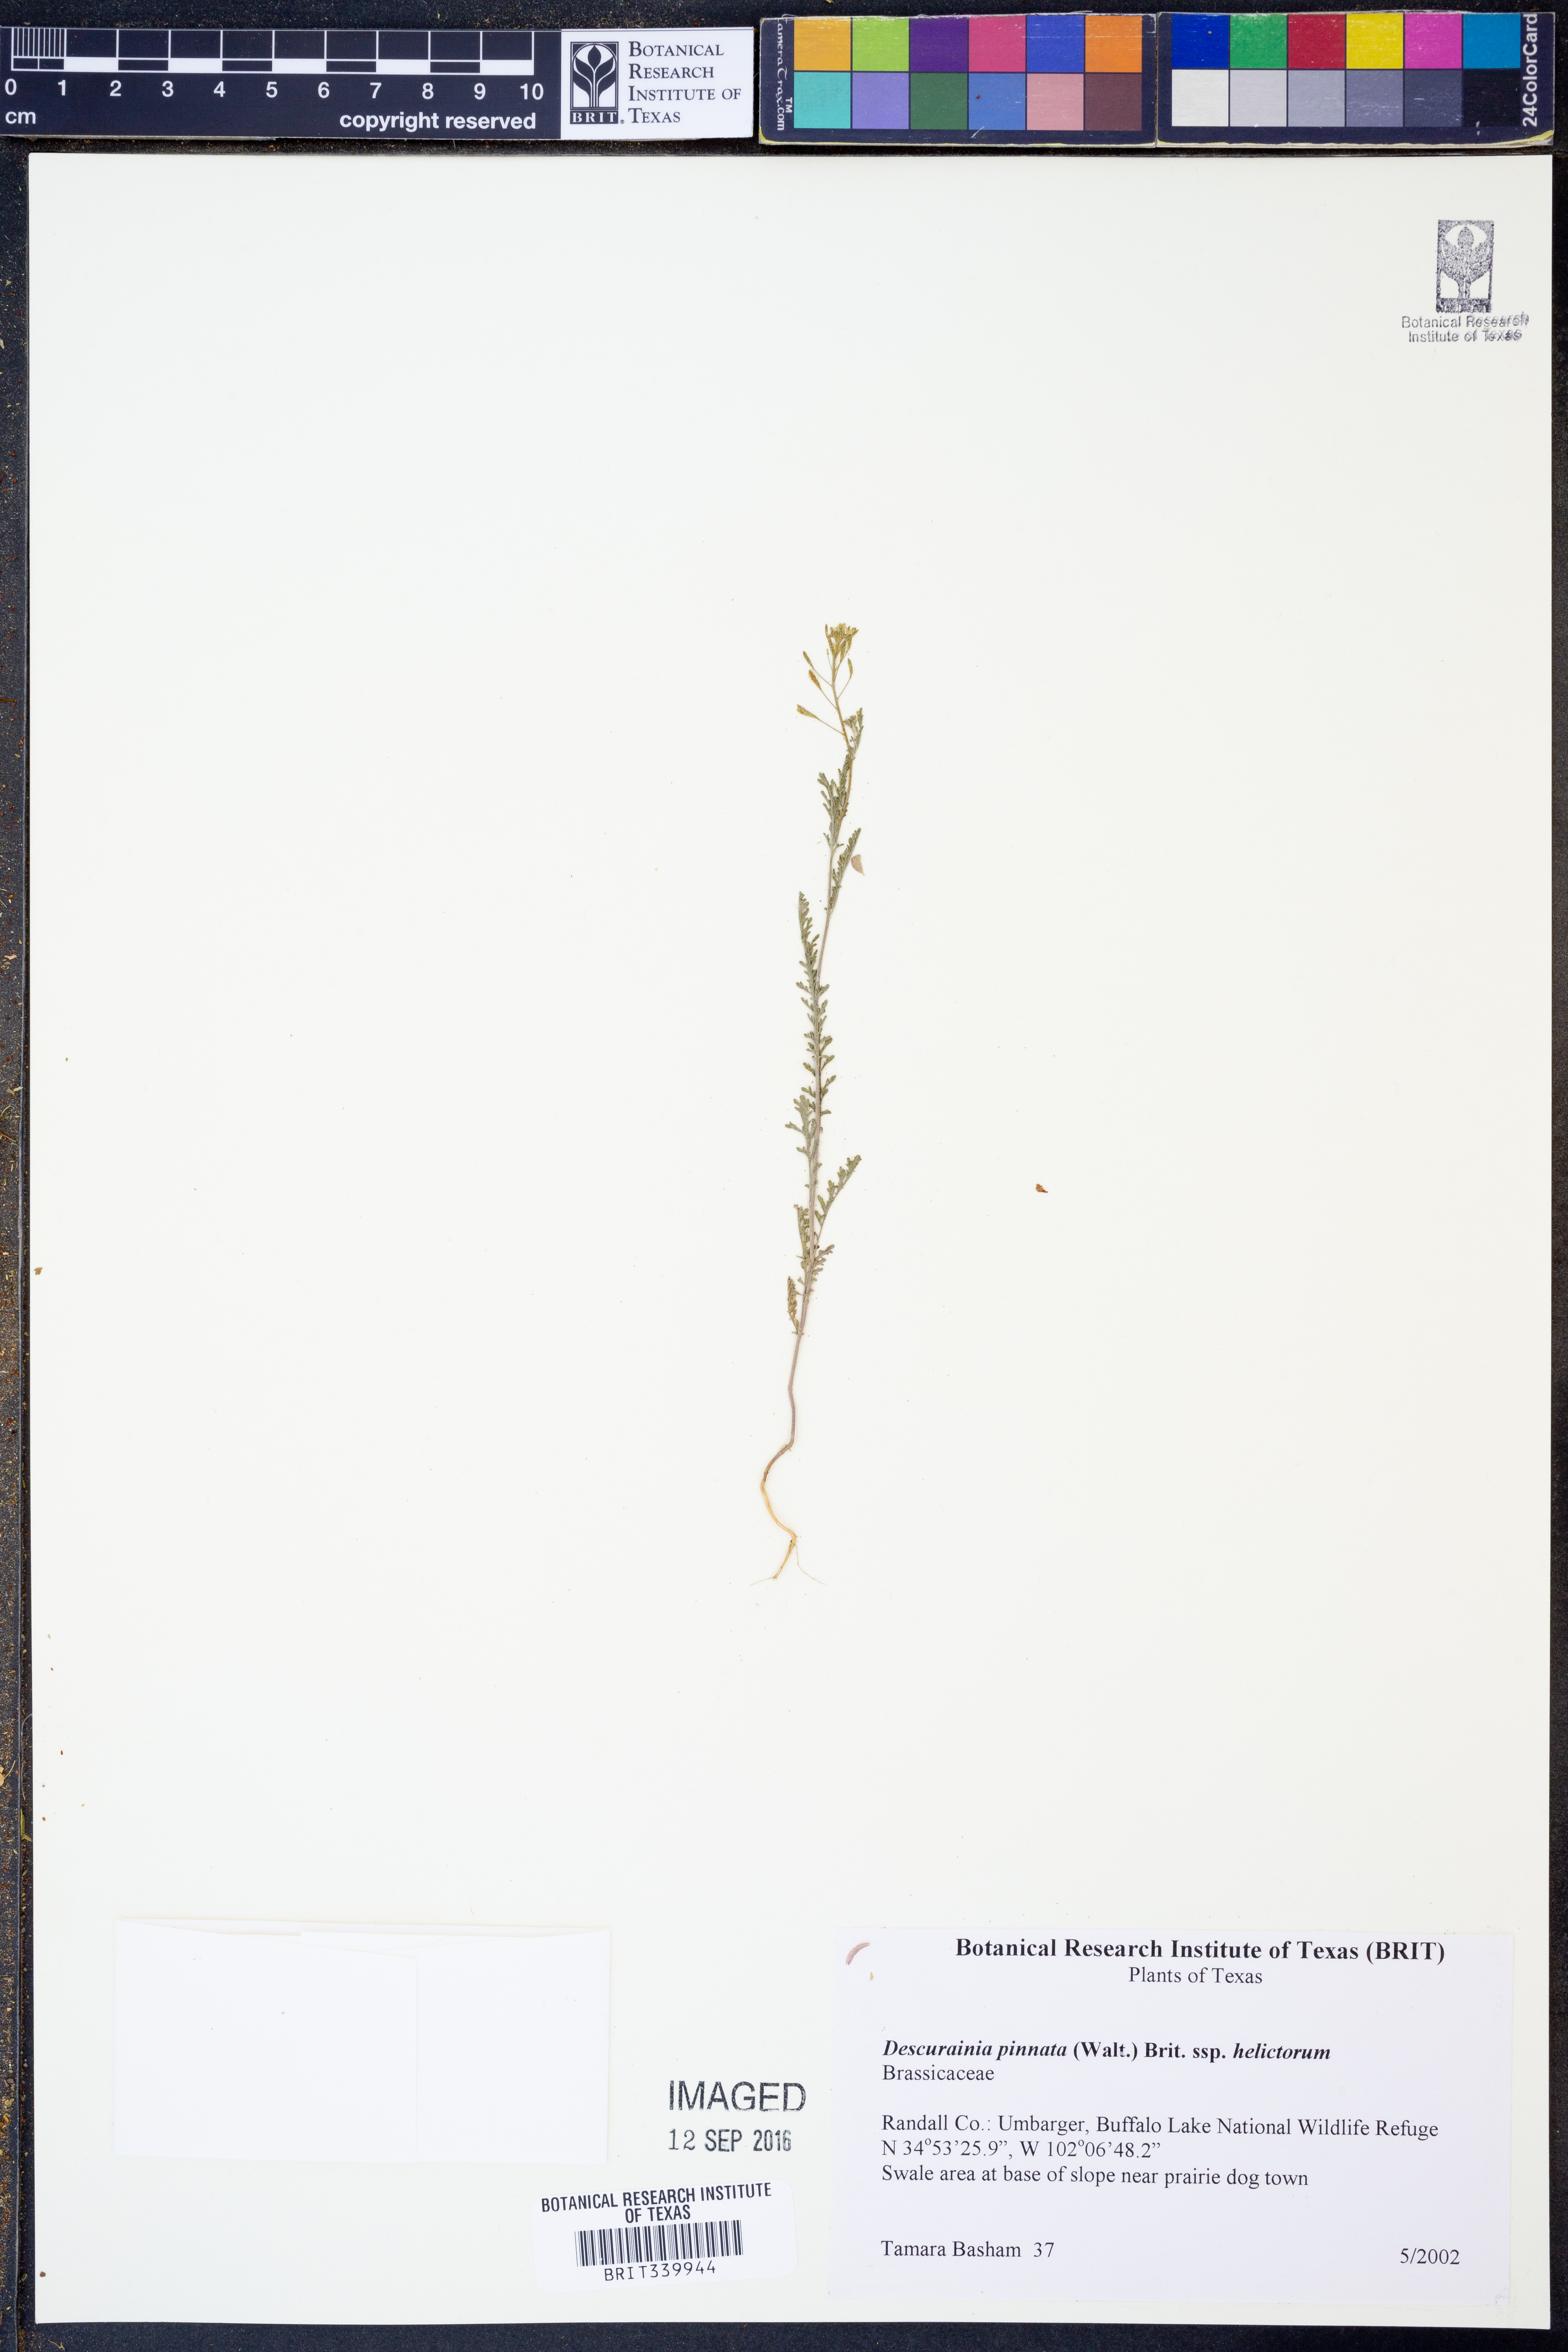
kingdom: Plantae
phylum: Tracheophyta
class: Magnoliopsida
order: Brassicales
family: Brassicaceae
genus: Descurainia
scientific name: Descurainia pinnata
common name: Western tansy mustard
